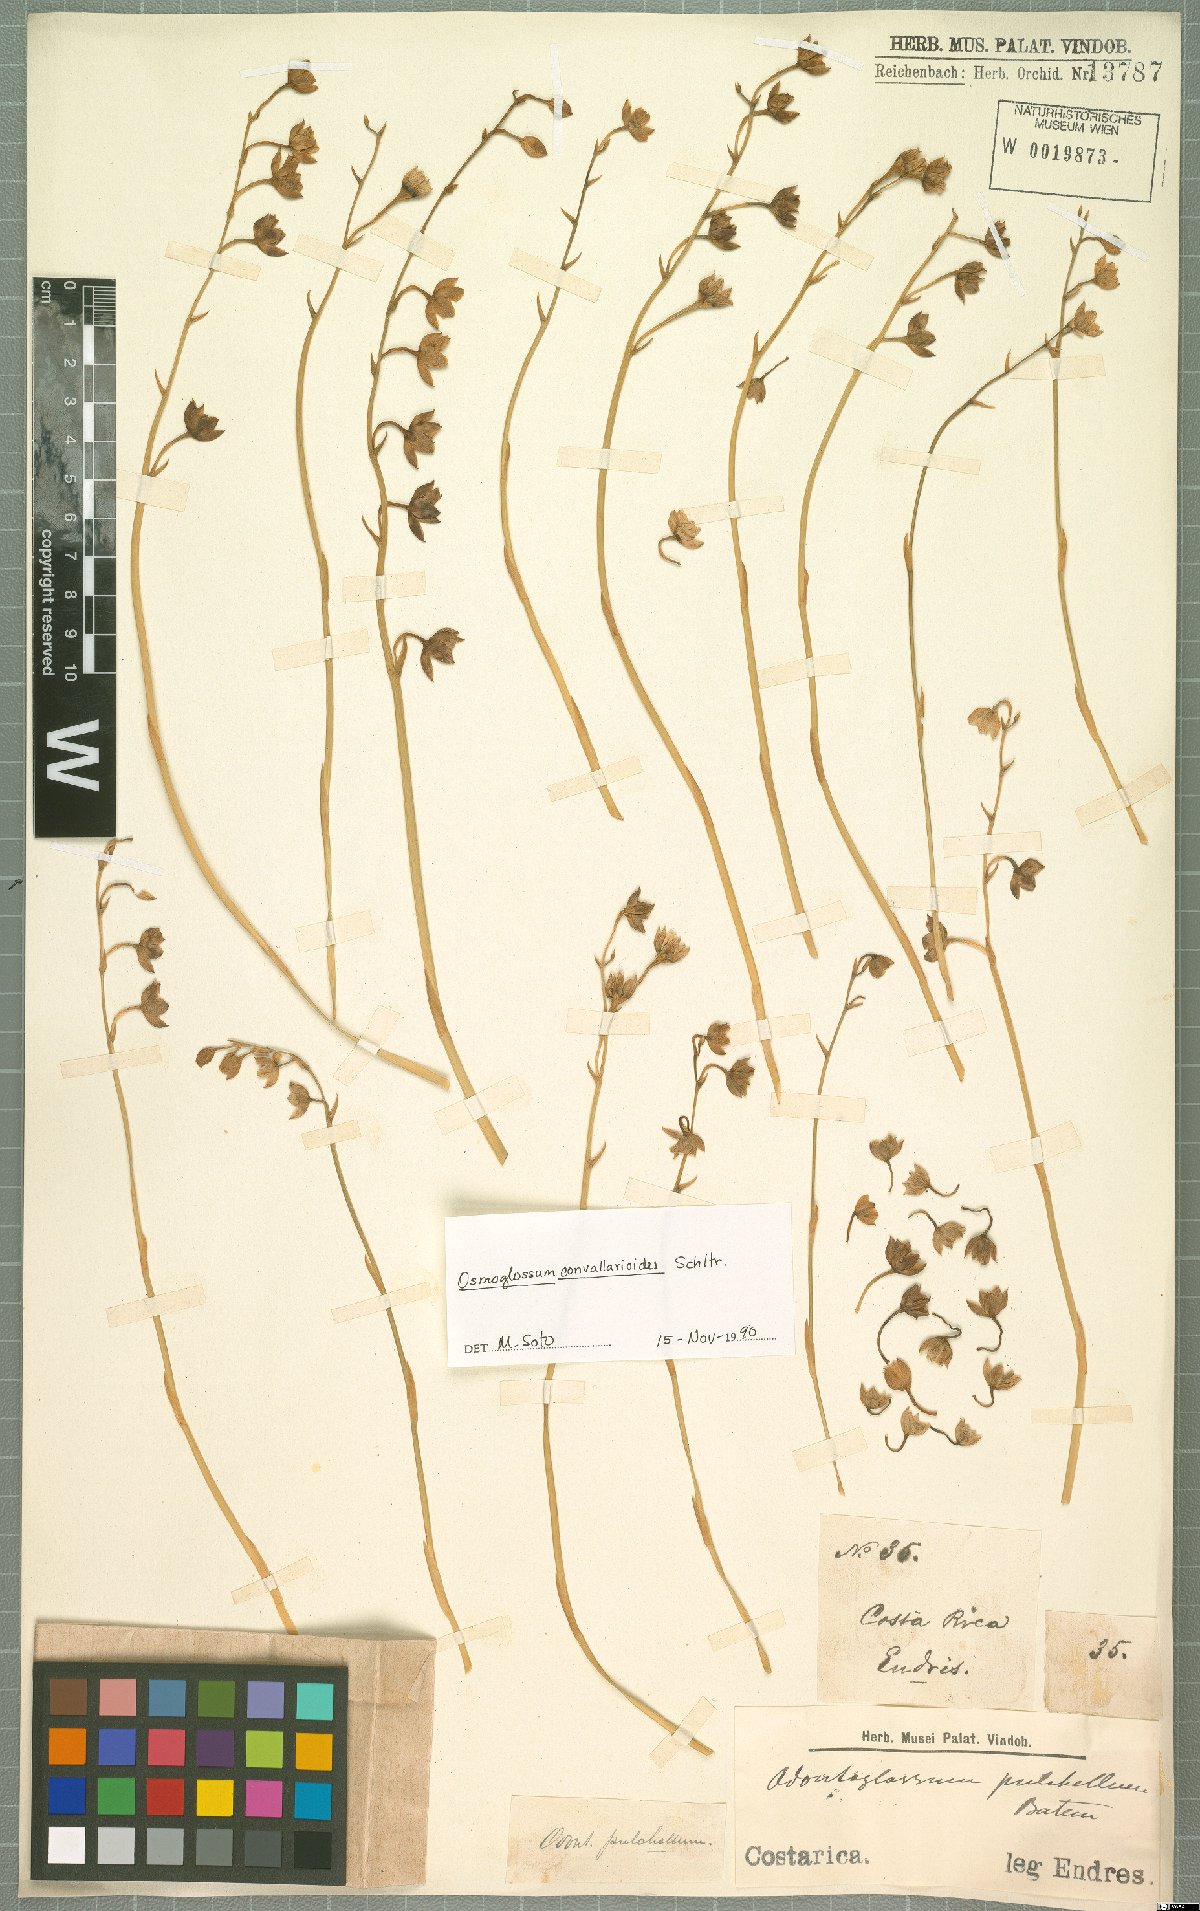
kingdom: Plantae
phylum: Tracheophyta
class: Liliopsida
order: Asparagales
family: Orchidaceae
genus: Cuitlauzina
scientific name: Cuitlauzina convallarioides
